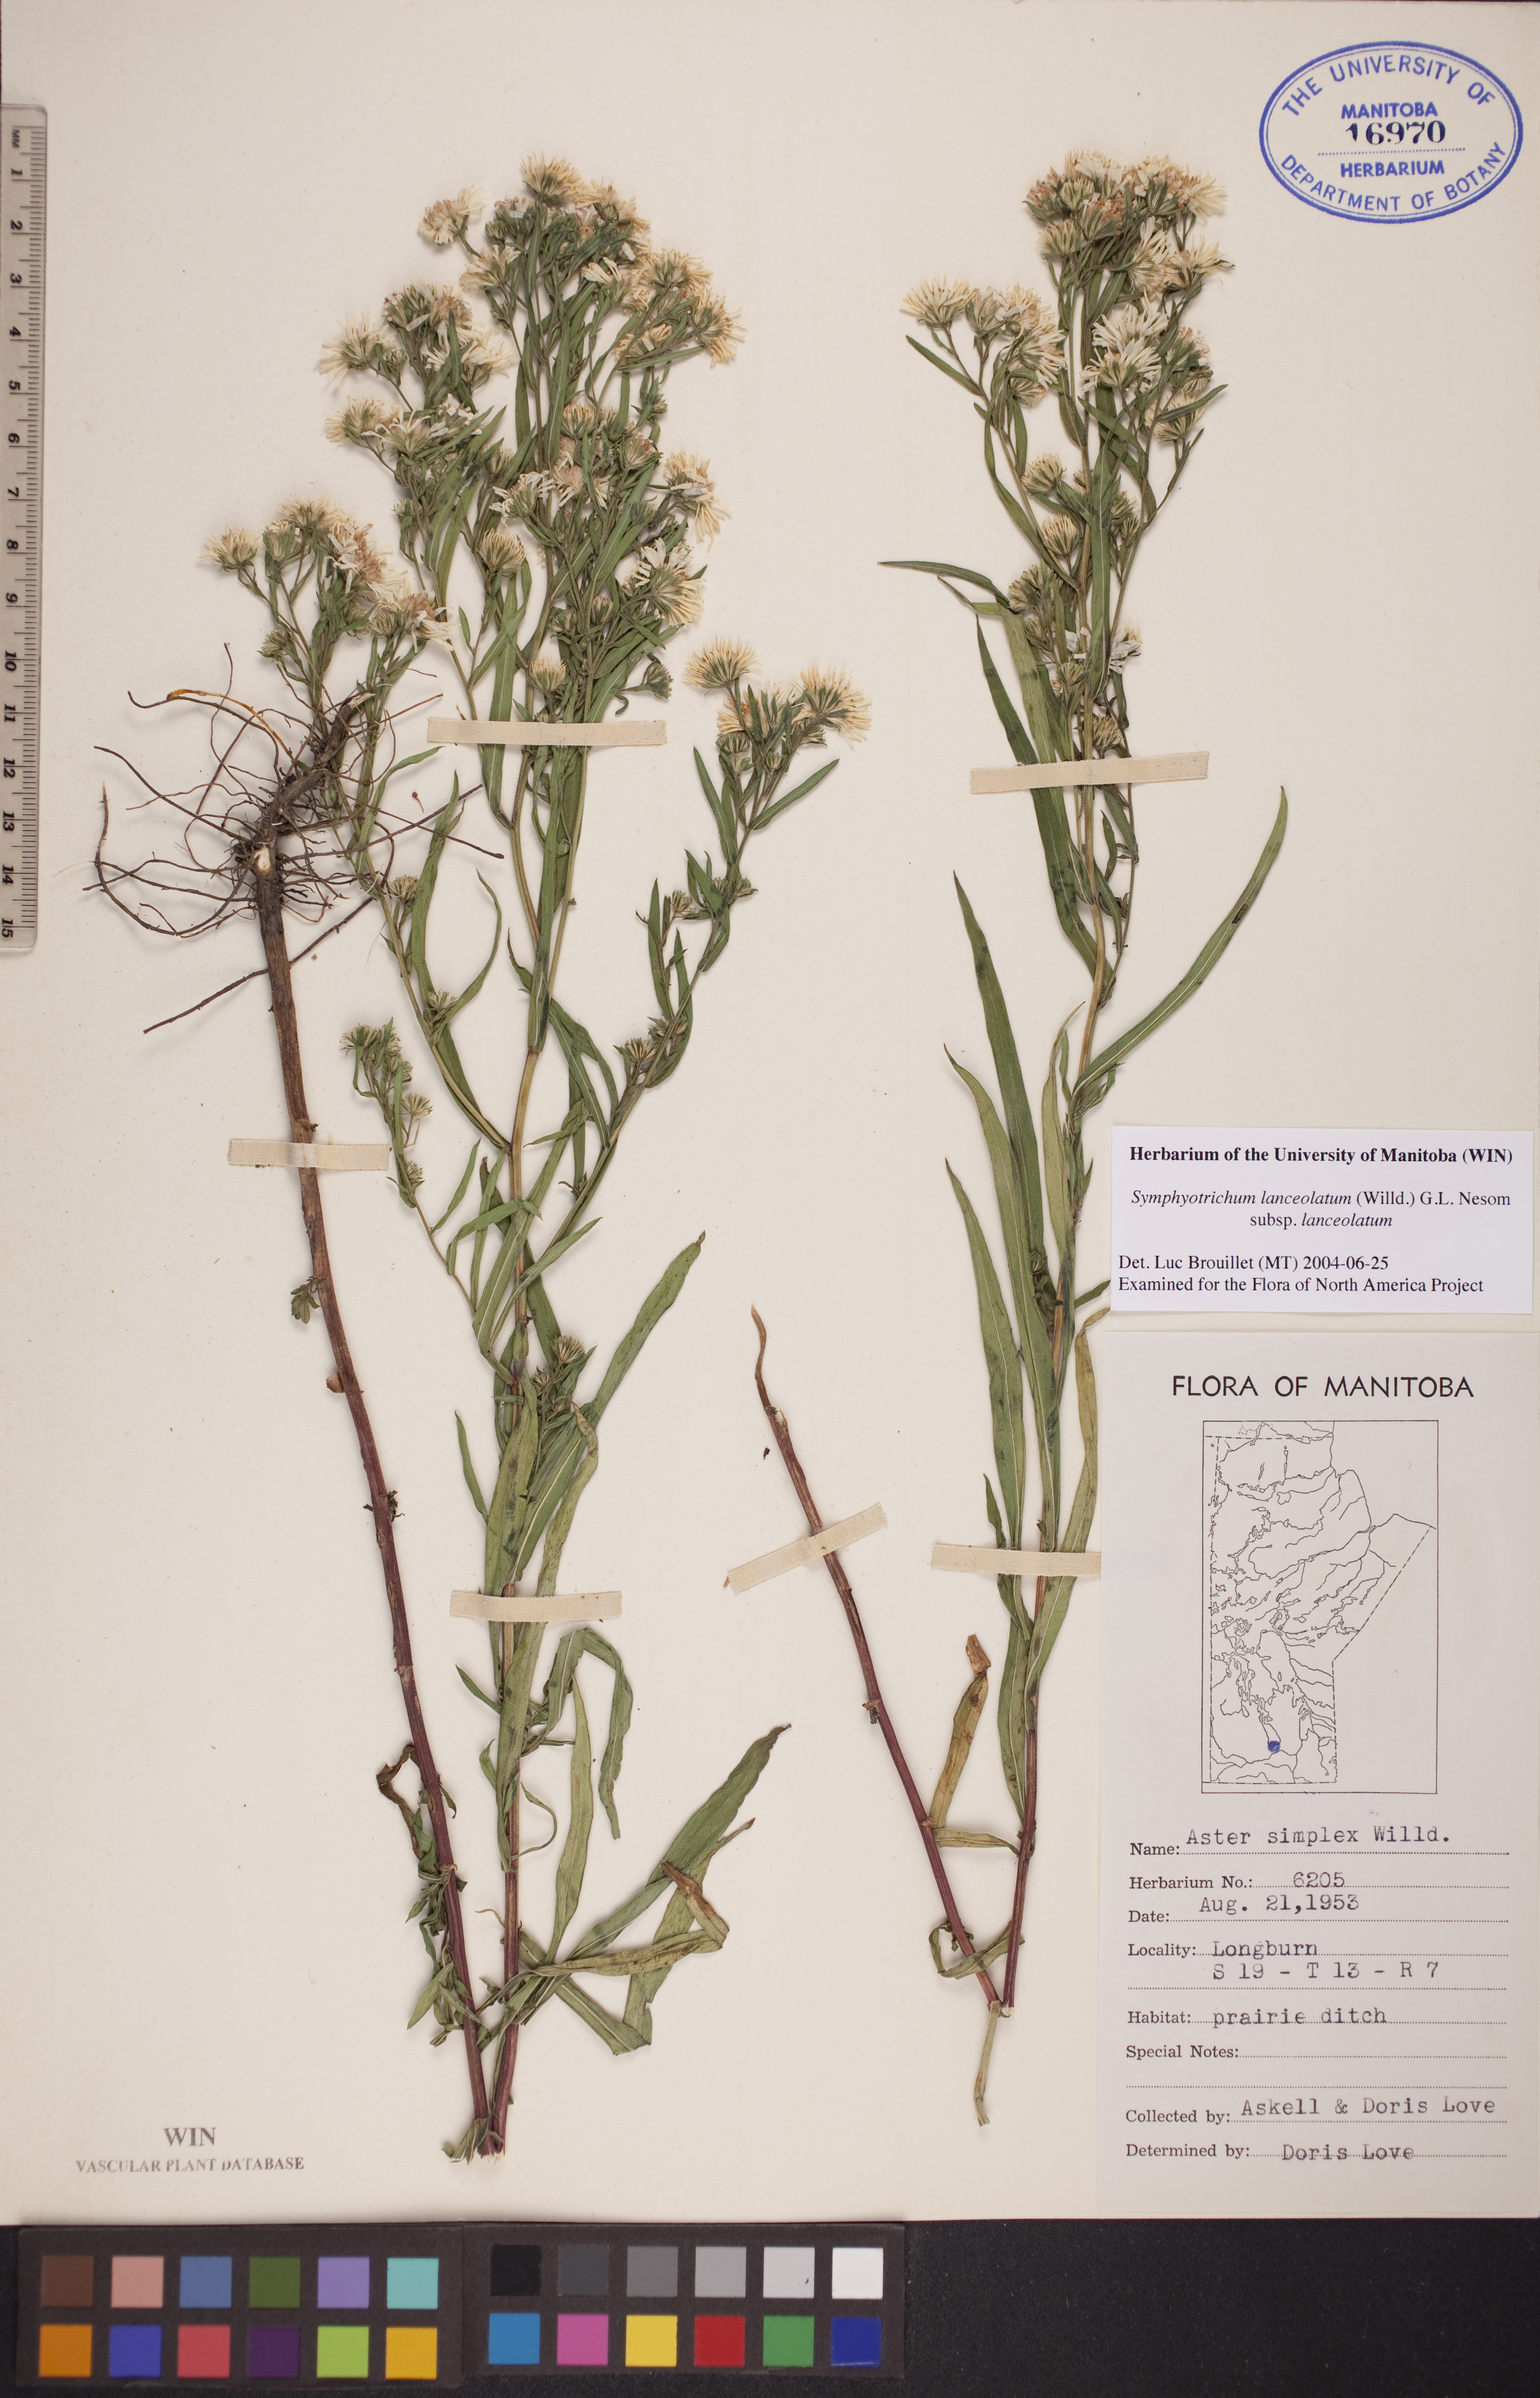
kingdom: Plantae
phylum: Tracheophyta
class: Magnoliopsida
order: Asterales
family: Asteraceae
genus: Symphyotrichum
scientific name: Symphyotrichum lanceolatum
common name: Panicled aster
